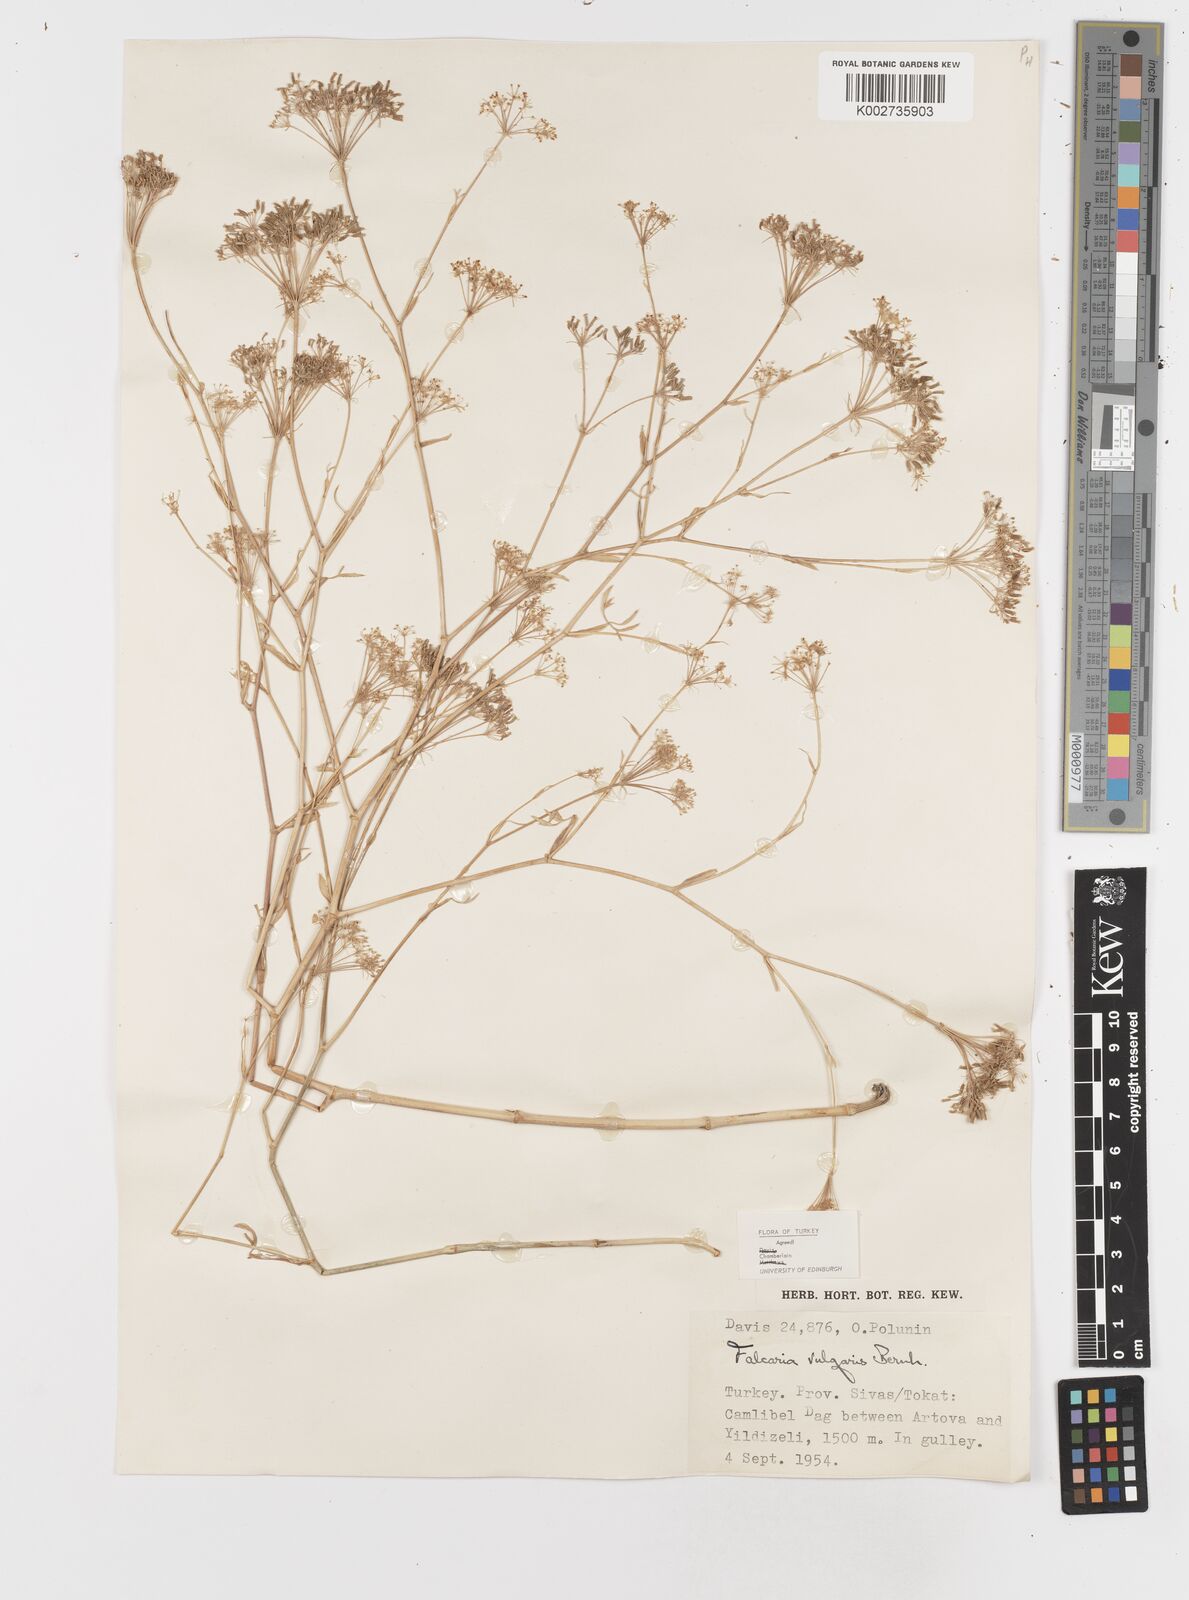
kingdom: Plantae
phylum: Tracheophyta
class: Magnoliopsida
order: Apiales
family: Apiaceae
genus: Falcaria
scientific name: Falcaria vulgaris
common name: Longleaf
